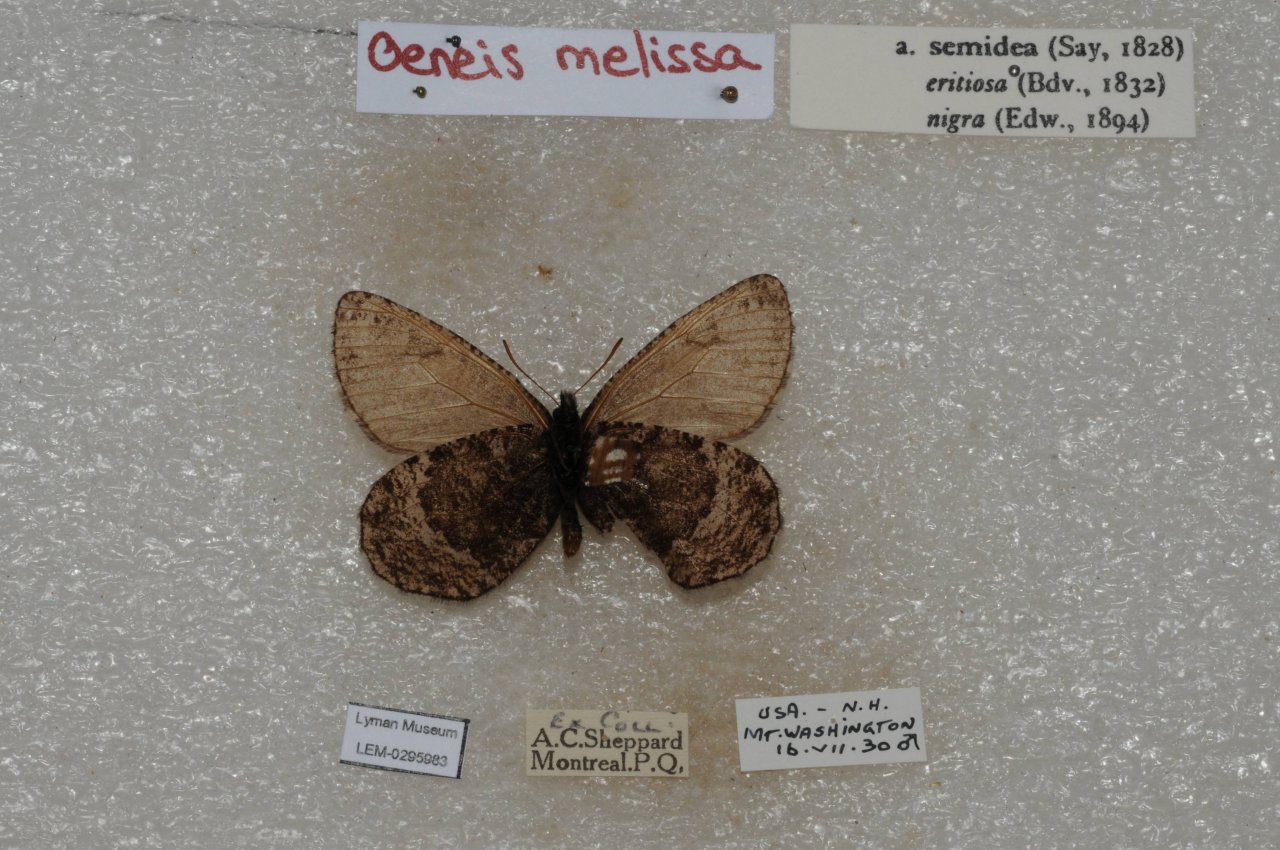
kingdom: Animalia
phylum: Arthropoda
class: Insecta
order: Lepidoptera
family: Nymphalidae
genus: Oeneis
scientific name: Oeneis melissa
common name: Melissa Arctic
